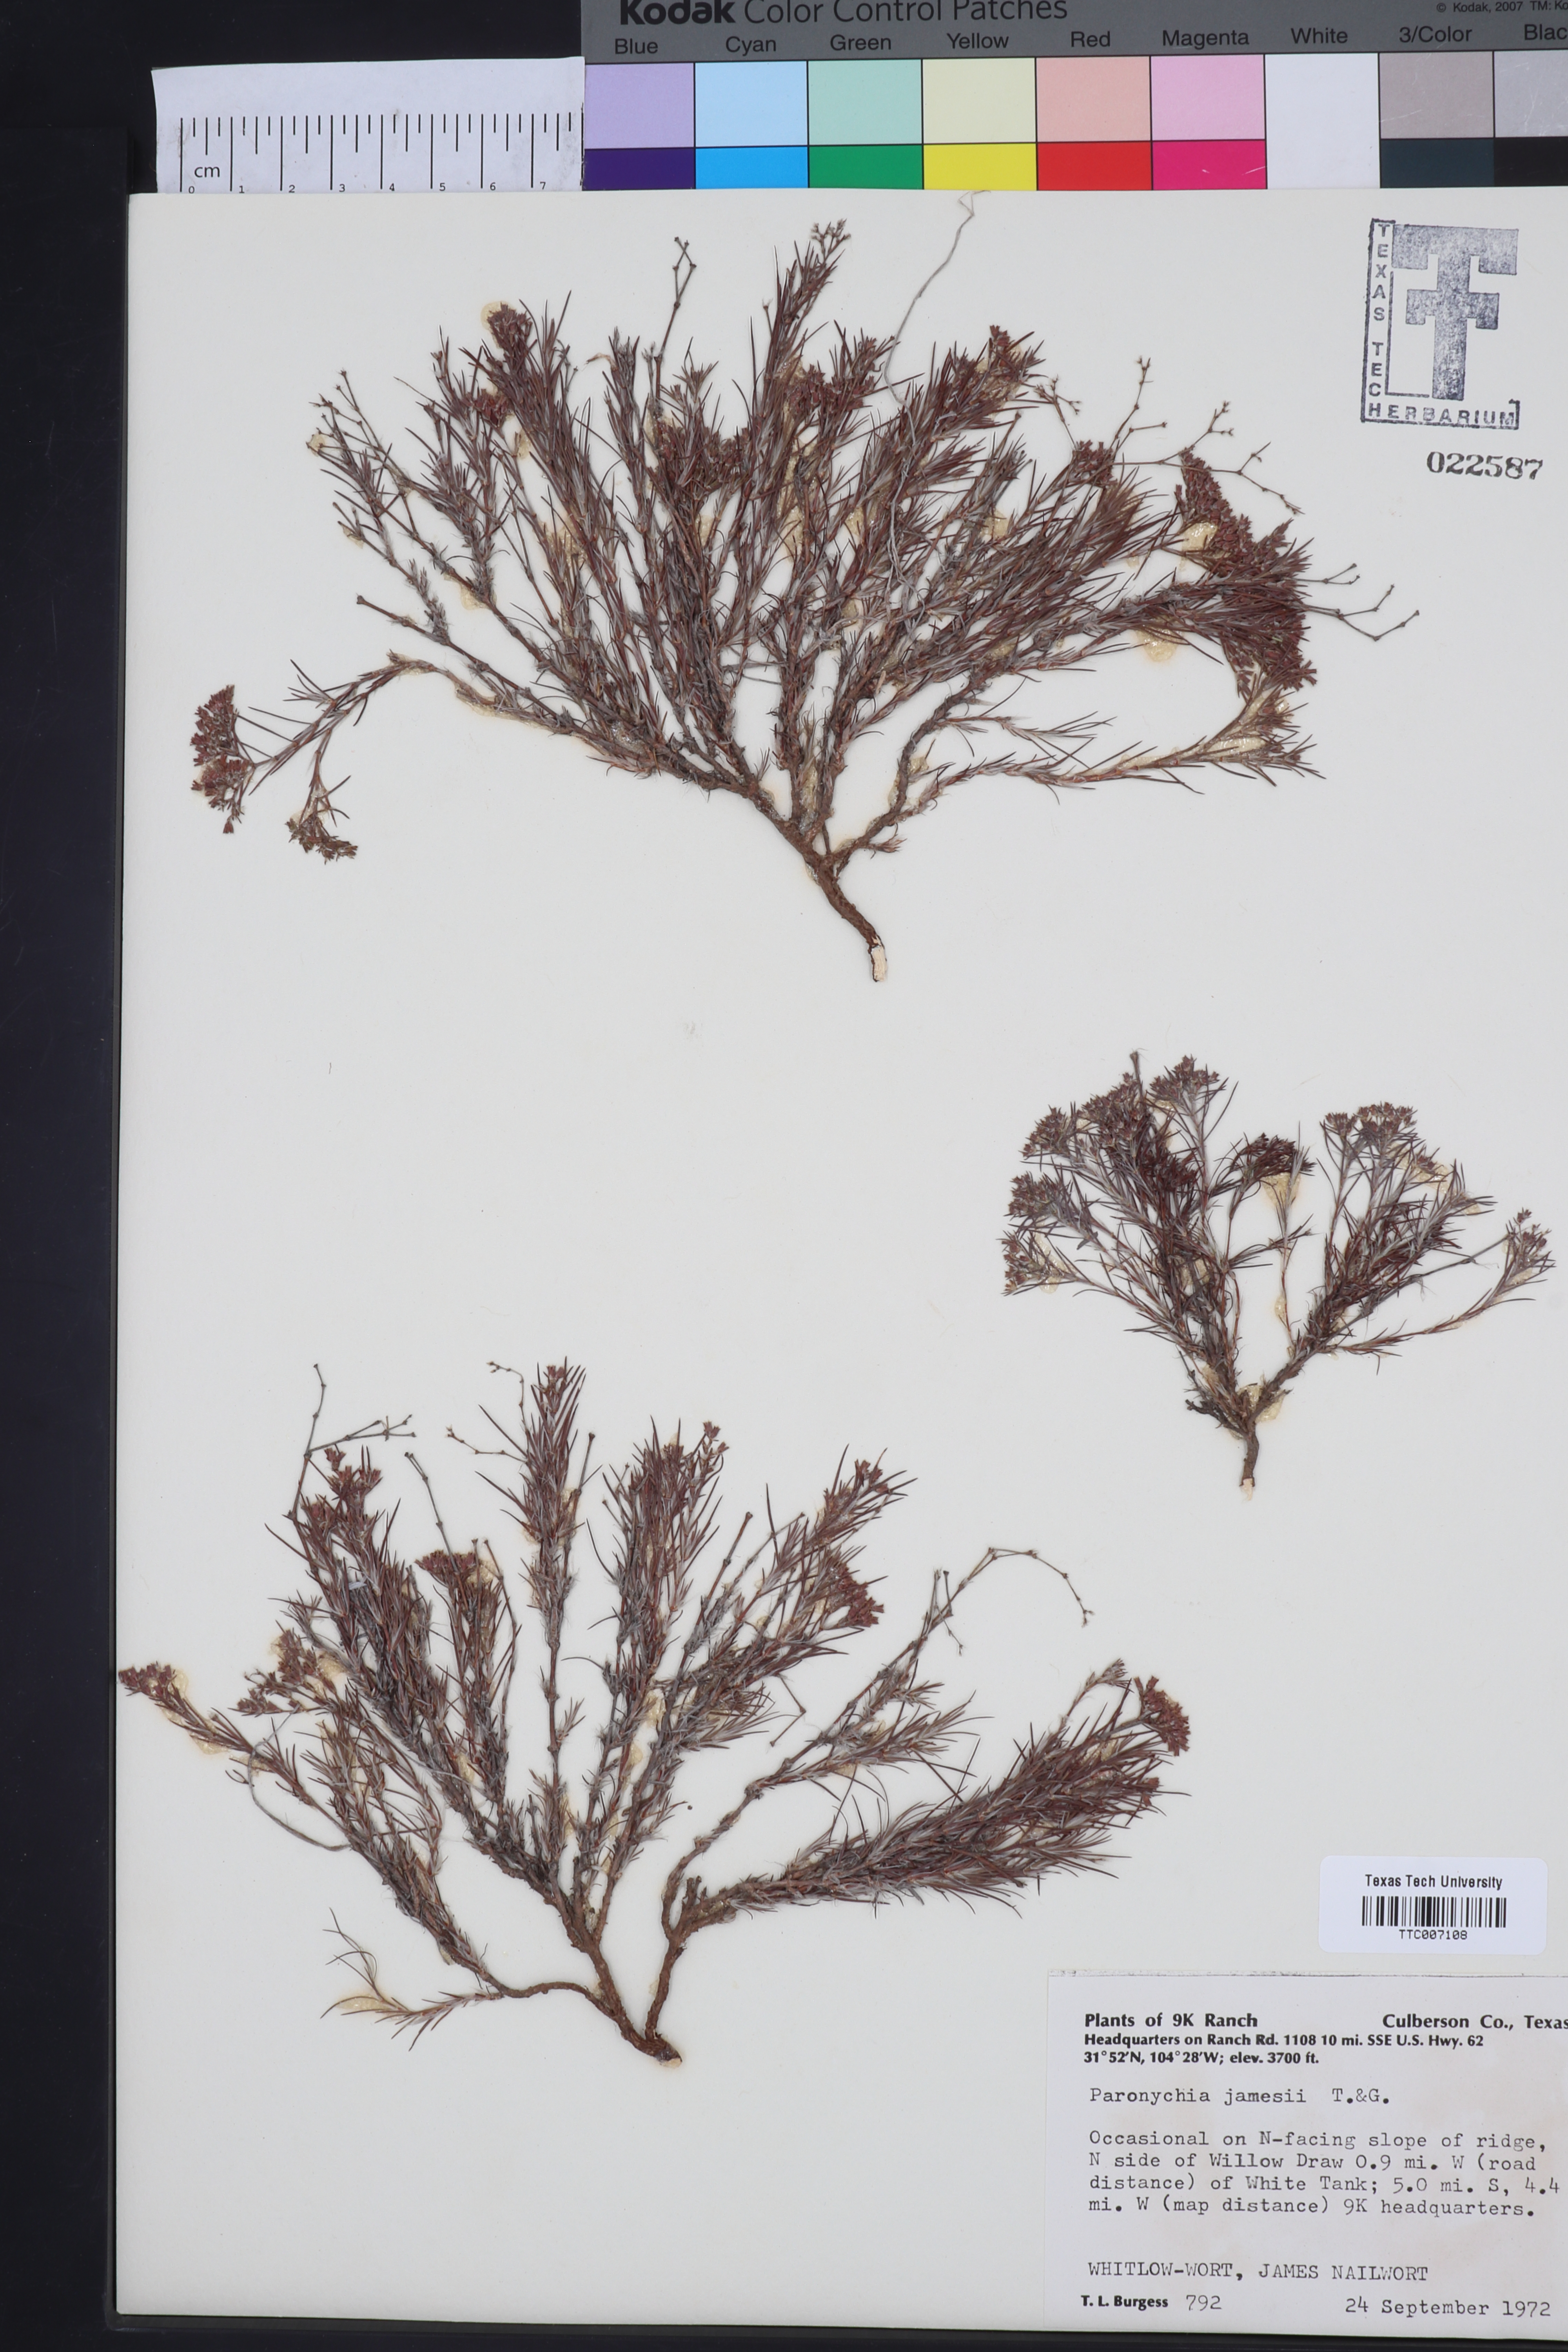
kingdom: Plantae
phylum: Tracheophyta
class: Magnoliopsida
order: Caryophyllales
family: Caryophyllaceae
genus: Paronychia
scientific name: Paronychia jamesii
